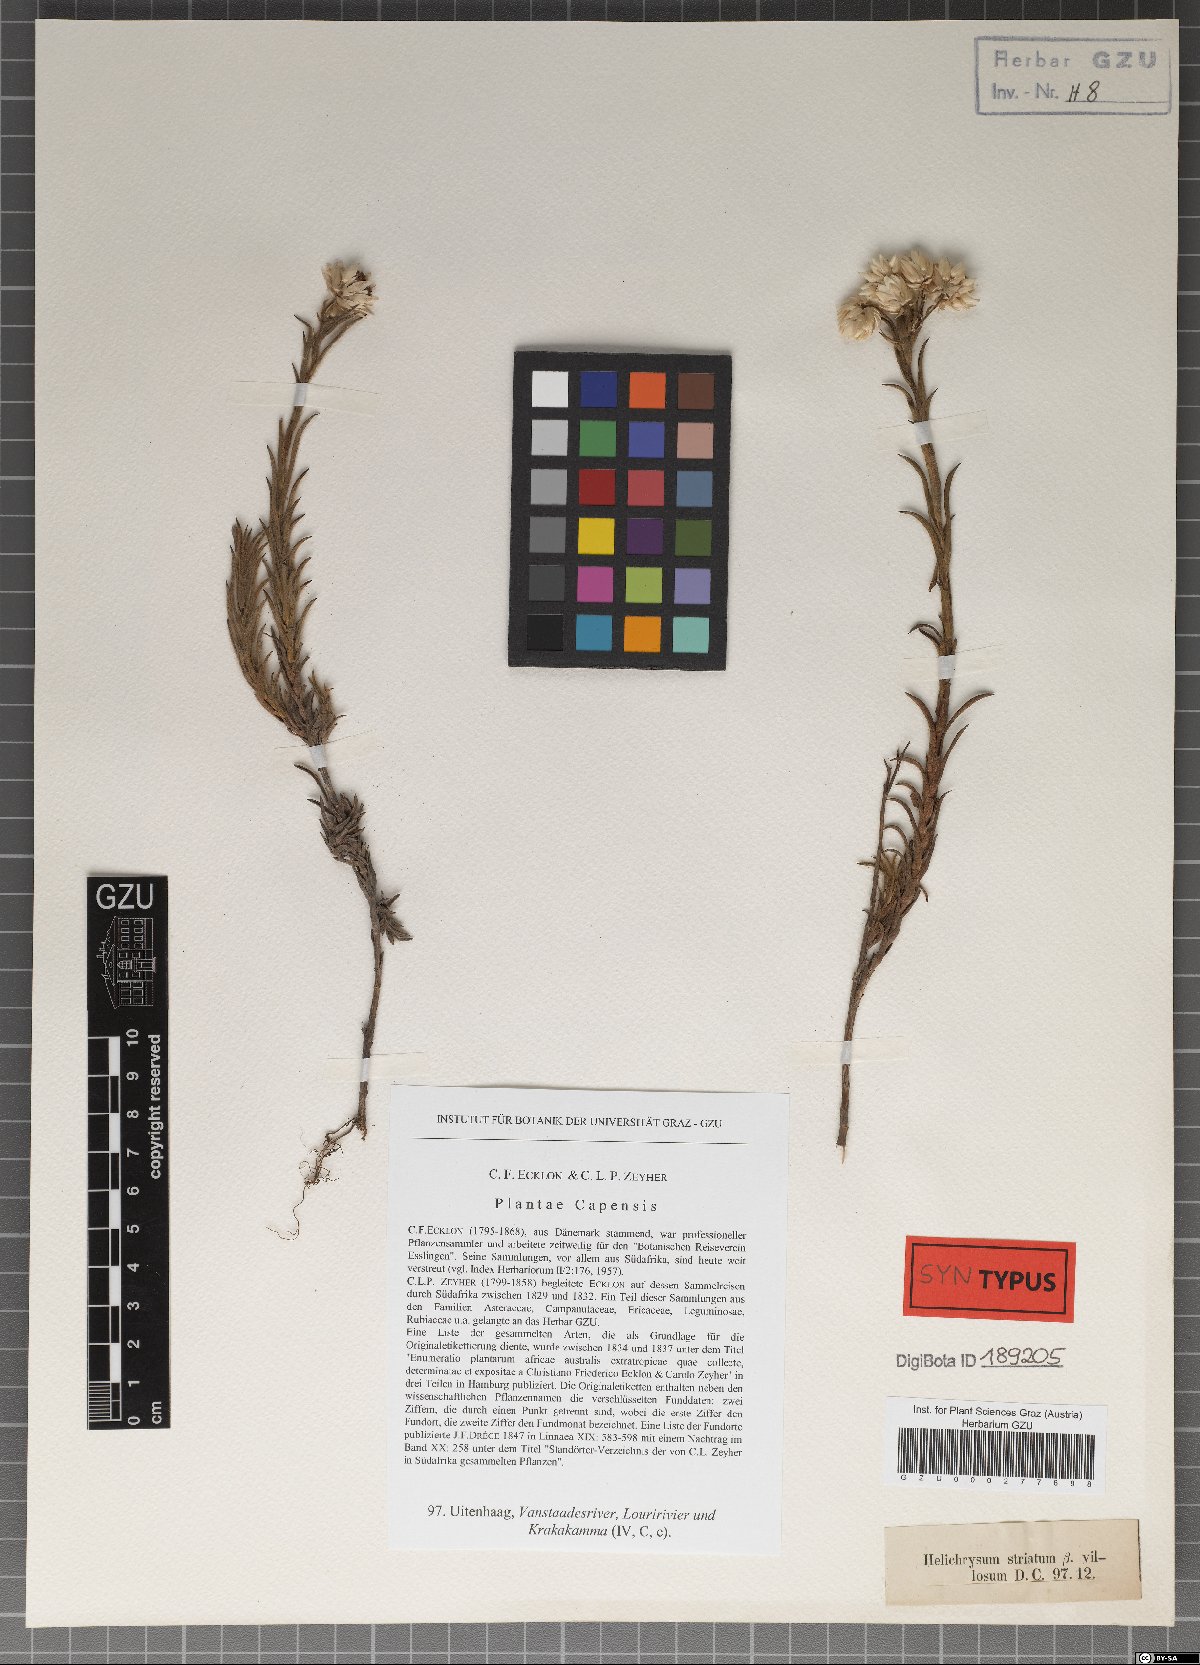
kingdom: Plantae
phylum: Tracheophyta
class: Magnoliopsida
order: Asterales
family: Asteraceae
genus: Achyranthemum
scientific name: Achyranthemum striatum
